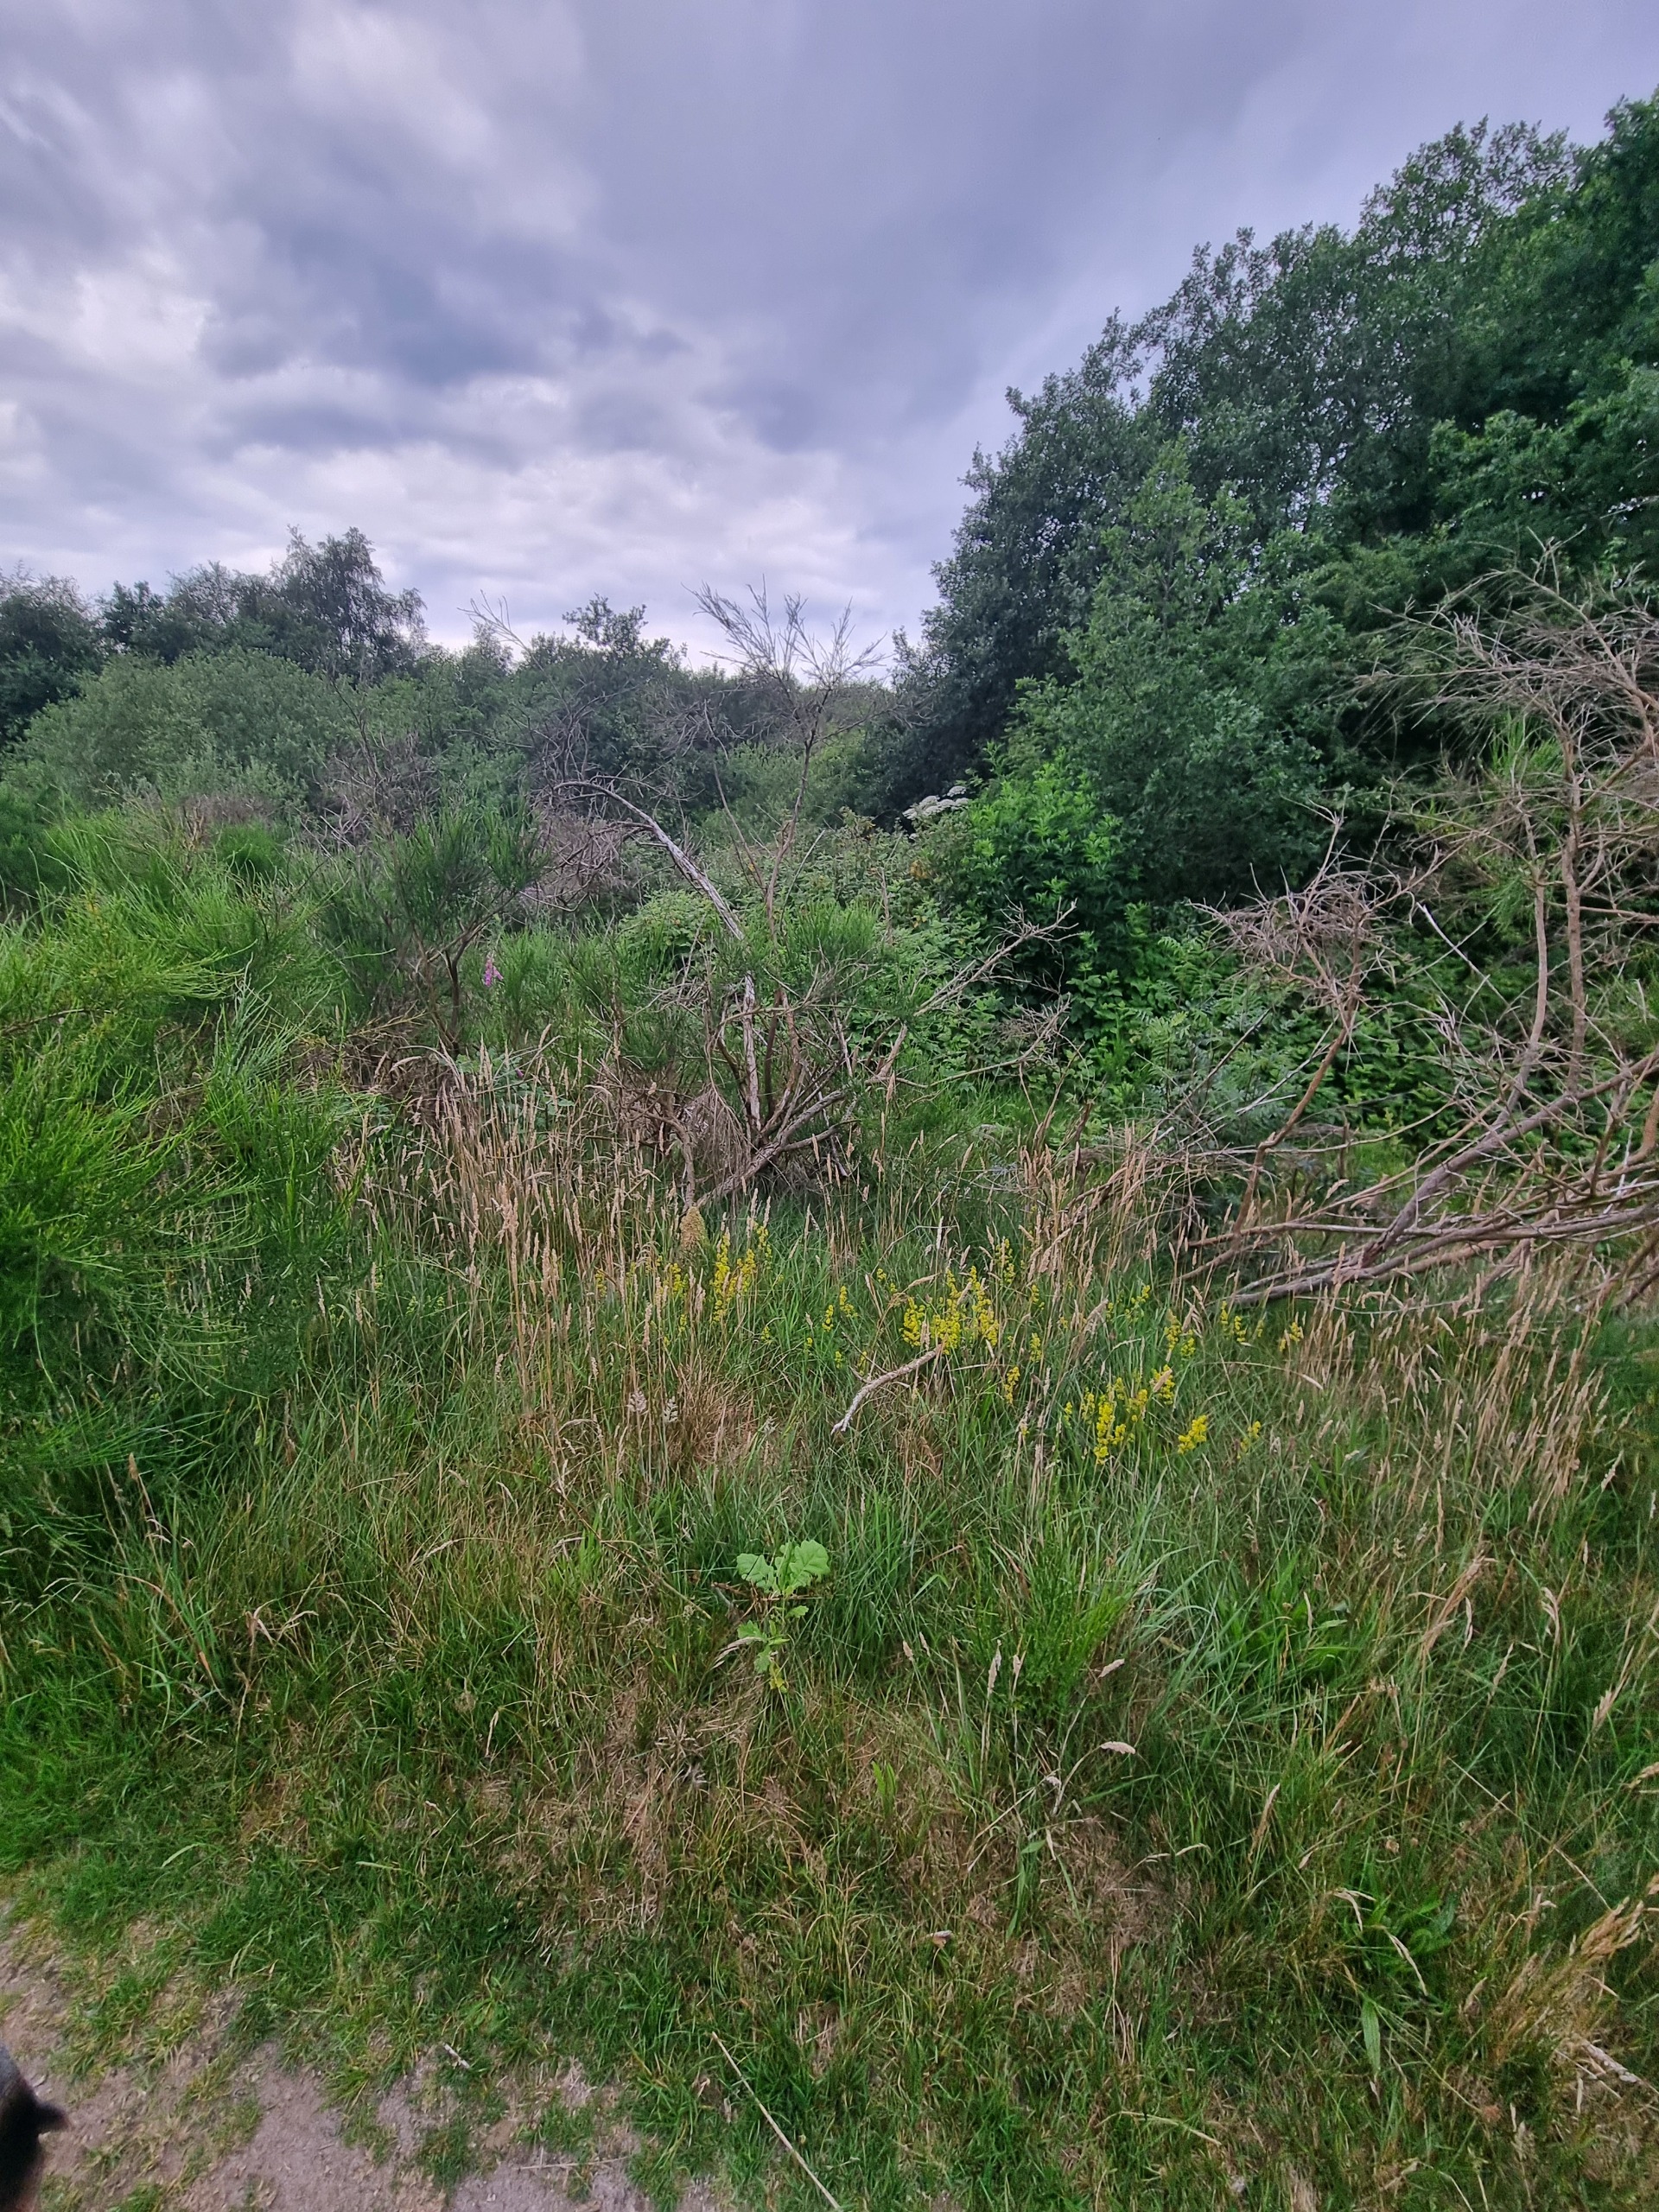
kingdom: Plantae
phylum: Tracheophyta
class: Magnoliopsida
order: Apiales
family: Apiaceae
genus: Heracleum
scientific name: Heracleum mantegazzianum
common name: Kæmpe-bjørneklo
